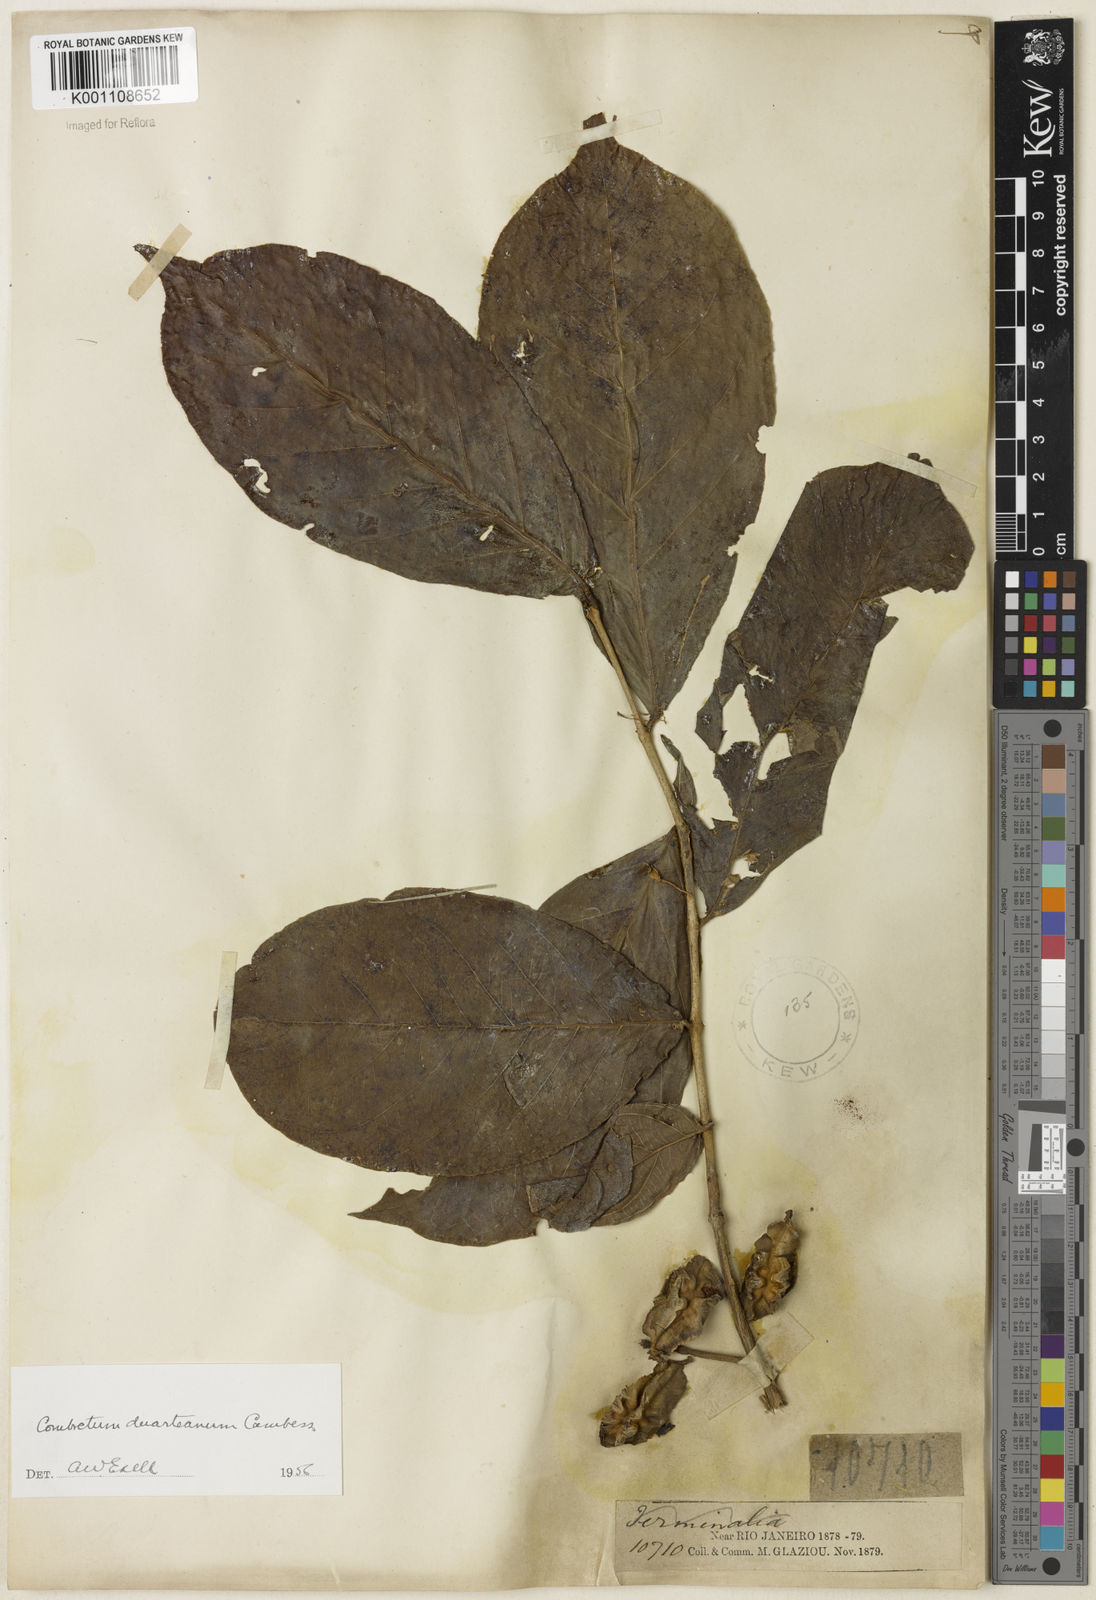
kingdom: Plantae
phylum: Tracheophyta
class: Magnoliopsida
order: Myrtales
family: Combretaceae
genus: Combretum
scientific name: Combretum duarteanum
